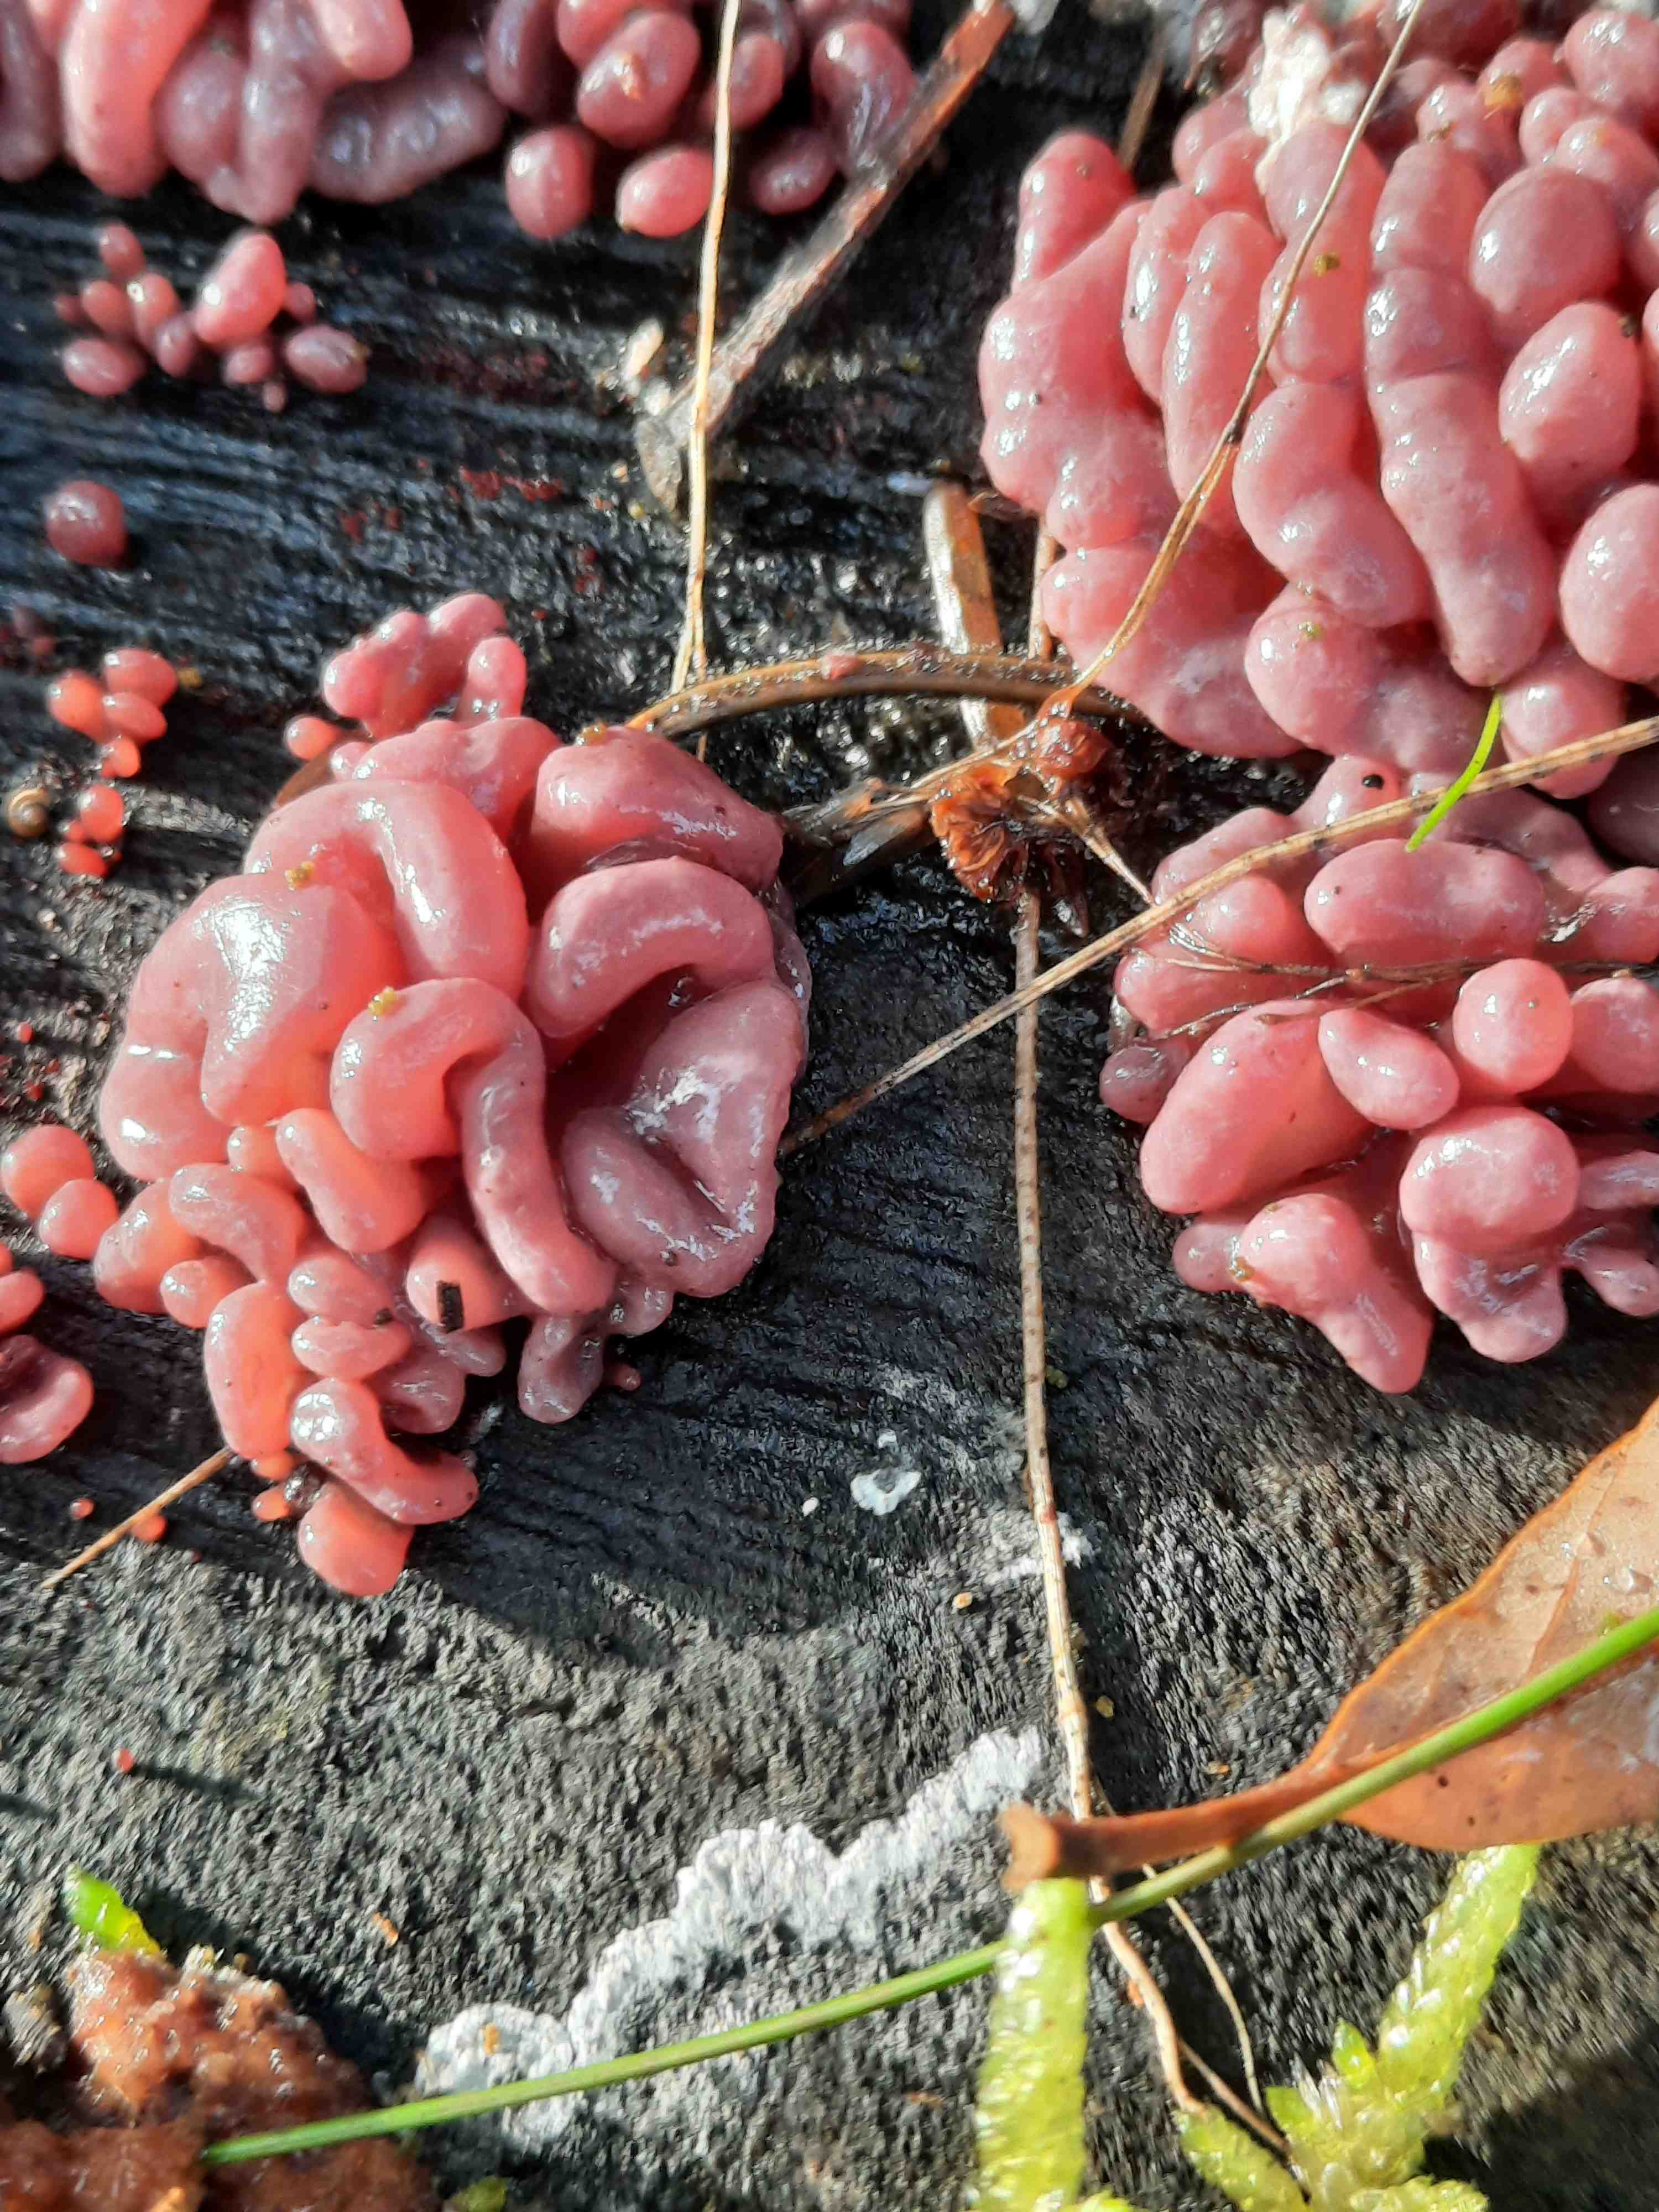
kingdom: Fungi
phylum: Ascomycota
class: Leotiomycetes
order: Helotiales
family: Gelatinodiscaceae
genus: Ascocoryne
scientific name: Ascocoryne sarcoides
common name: rødlilla sejskive
